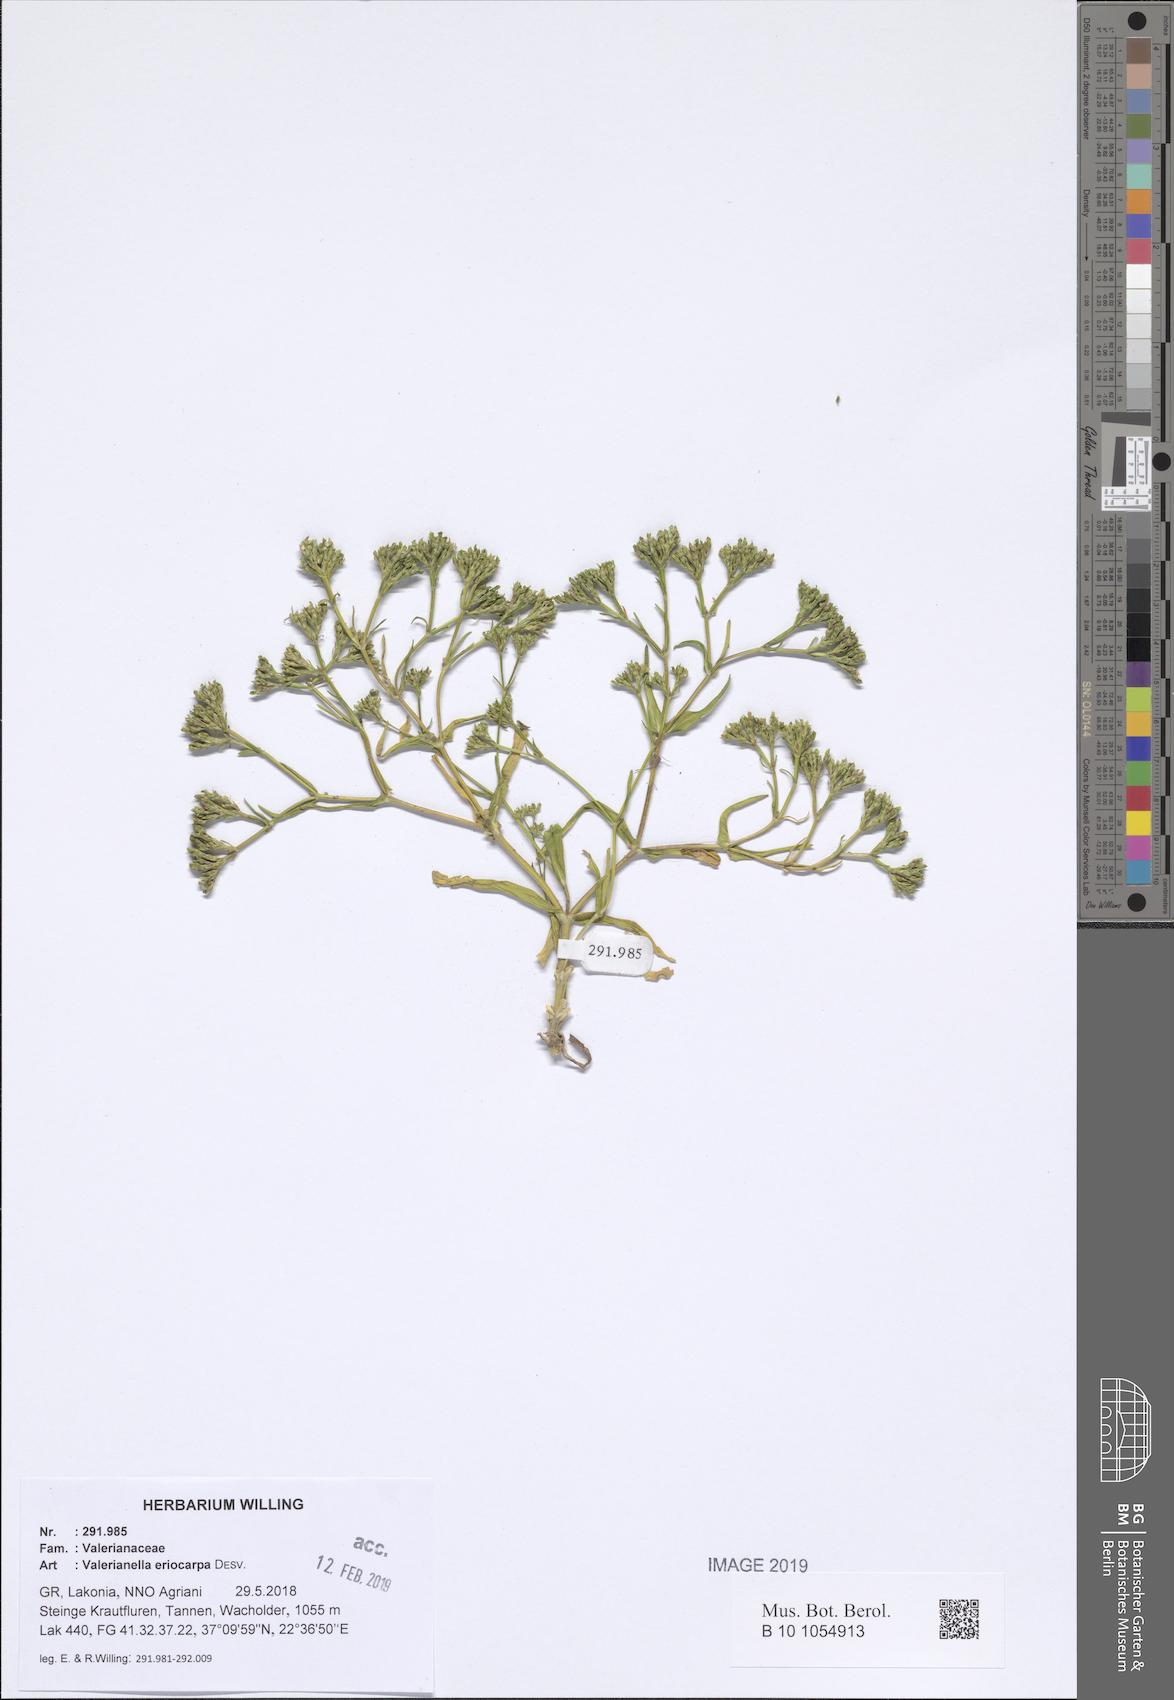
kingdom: Plantae
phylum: Tracheophyta
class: Magnoliopsida
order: Dipsacales
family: Caprifoliaceae
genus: Valerianella
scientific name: Valerianella eriocarpa
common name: Hairy-fruited cornsalad
